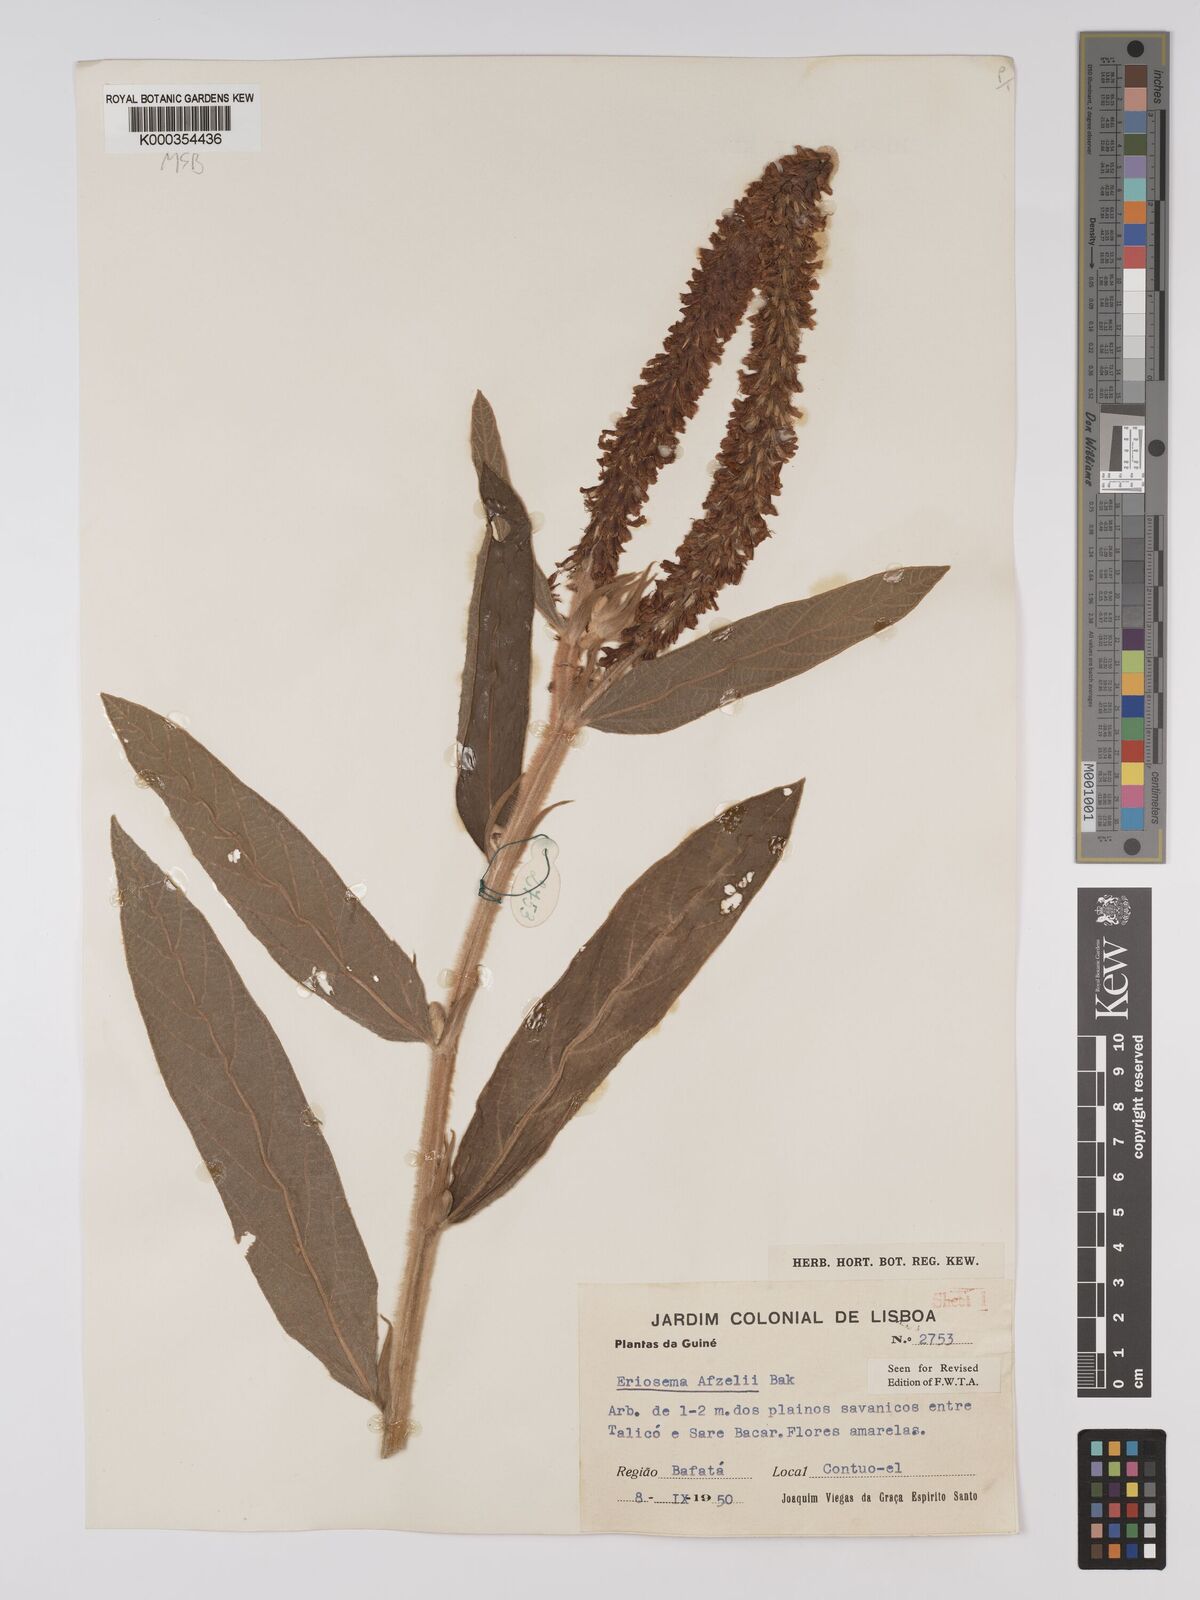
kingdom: Plantae
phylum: Tracheophyta
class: Magnoliopsida
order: Fabales
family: Fabaceae
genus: Eriosema
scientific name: Eriosema afzelii
